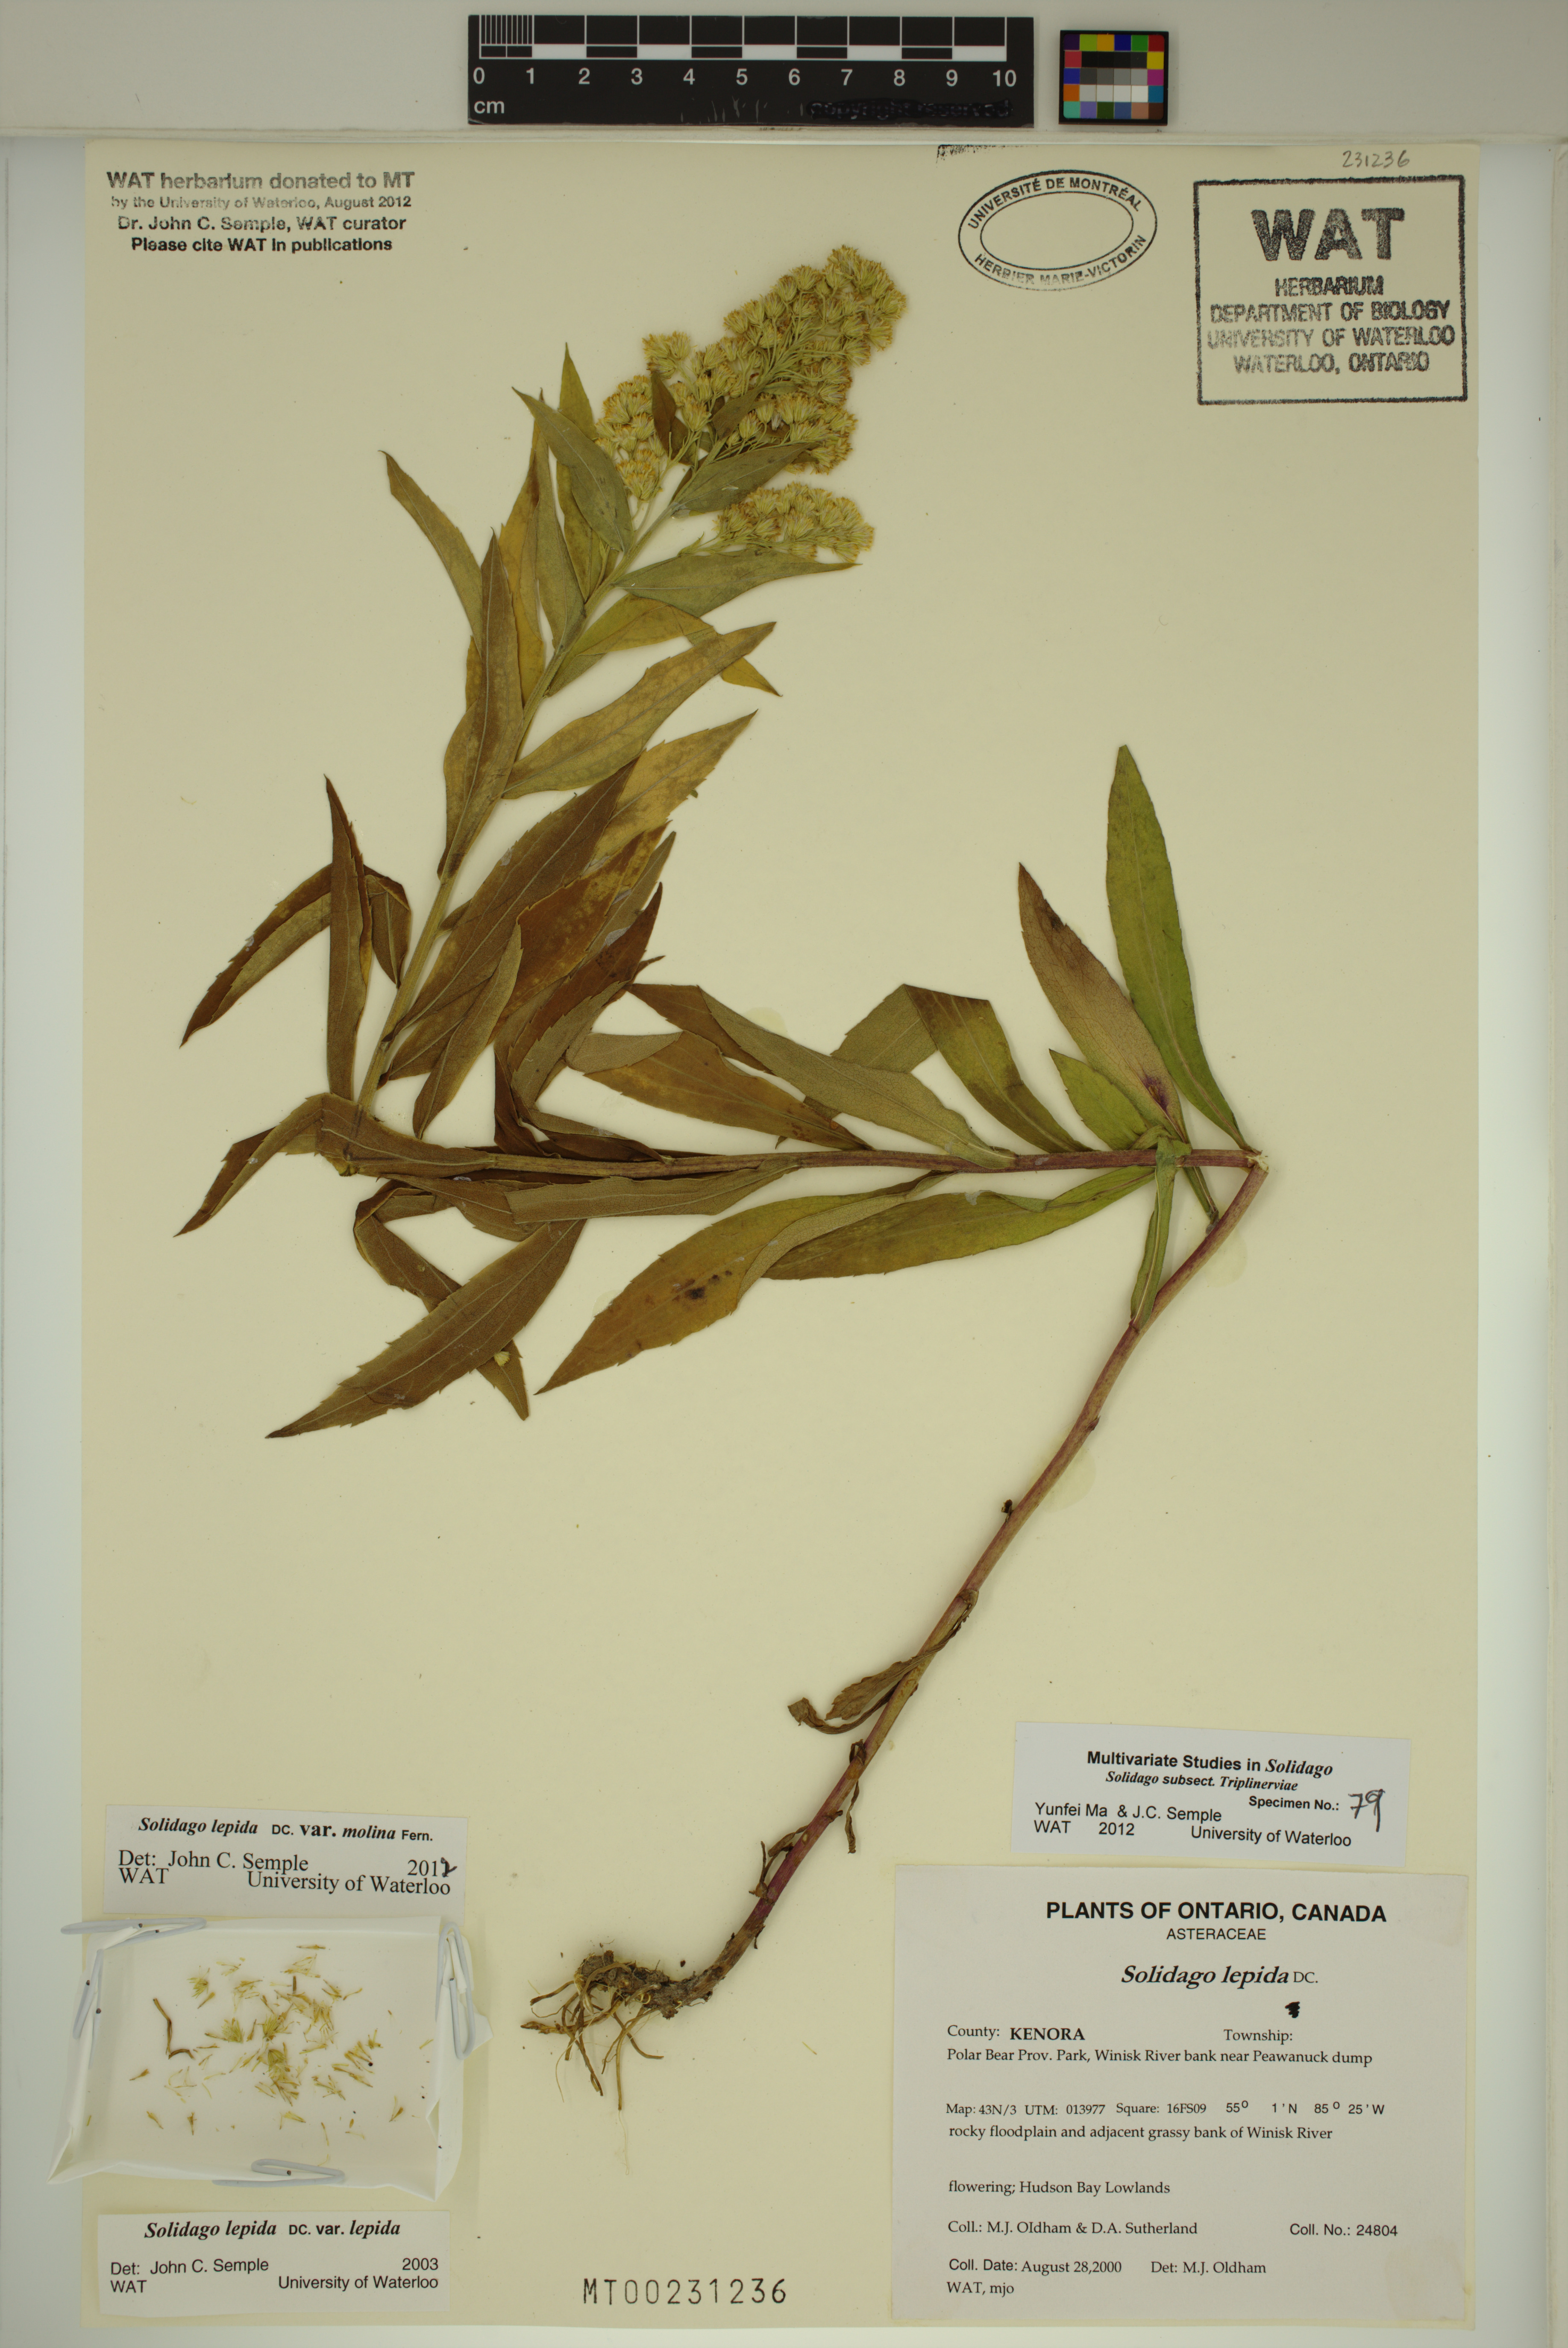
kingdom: Plantae
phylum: Tracheophyta
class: Magnoliopsida
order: Asterales
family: Asteraceae
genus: Solidago
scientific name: Solidago fallax
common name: Big-toothed canada goldenrod
